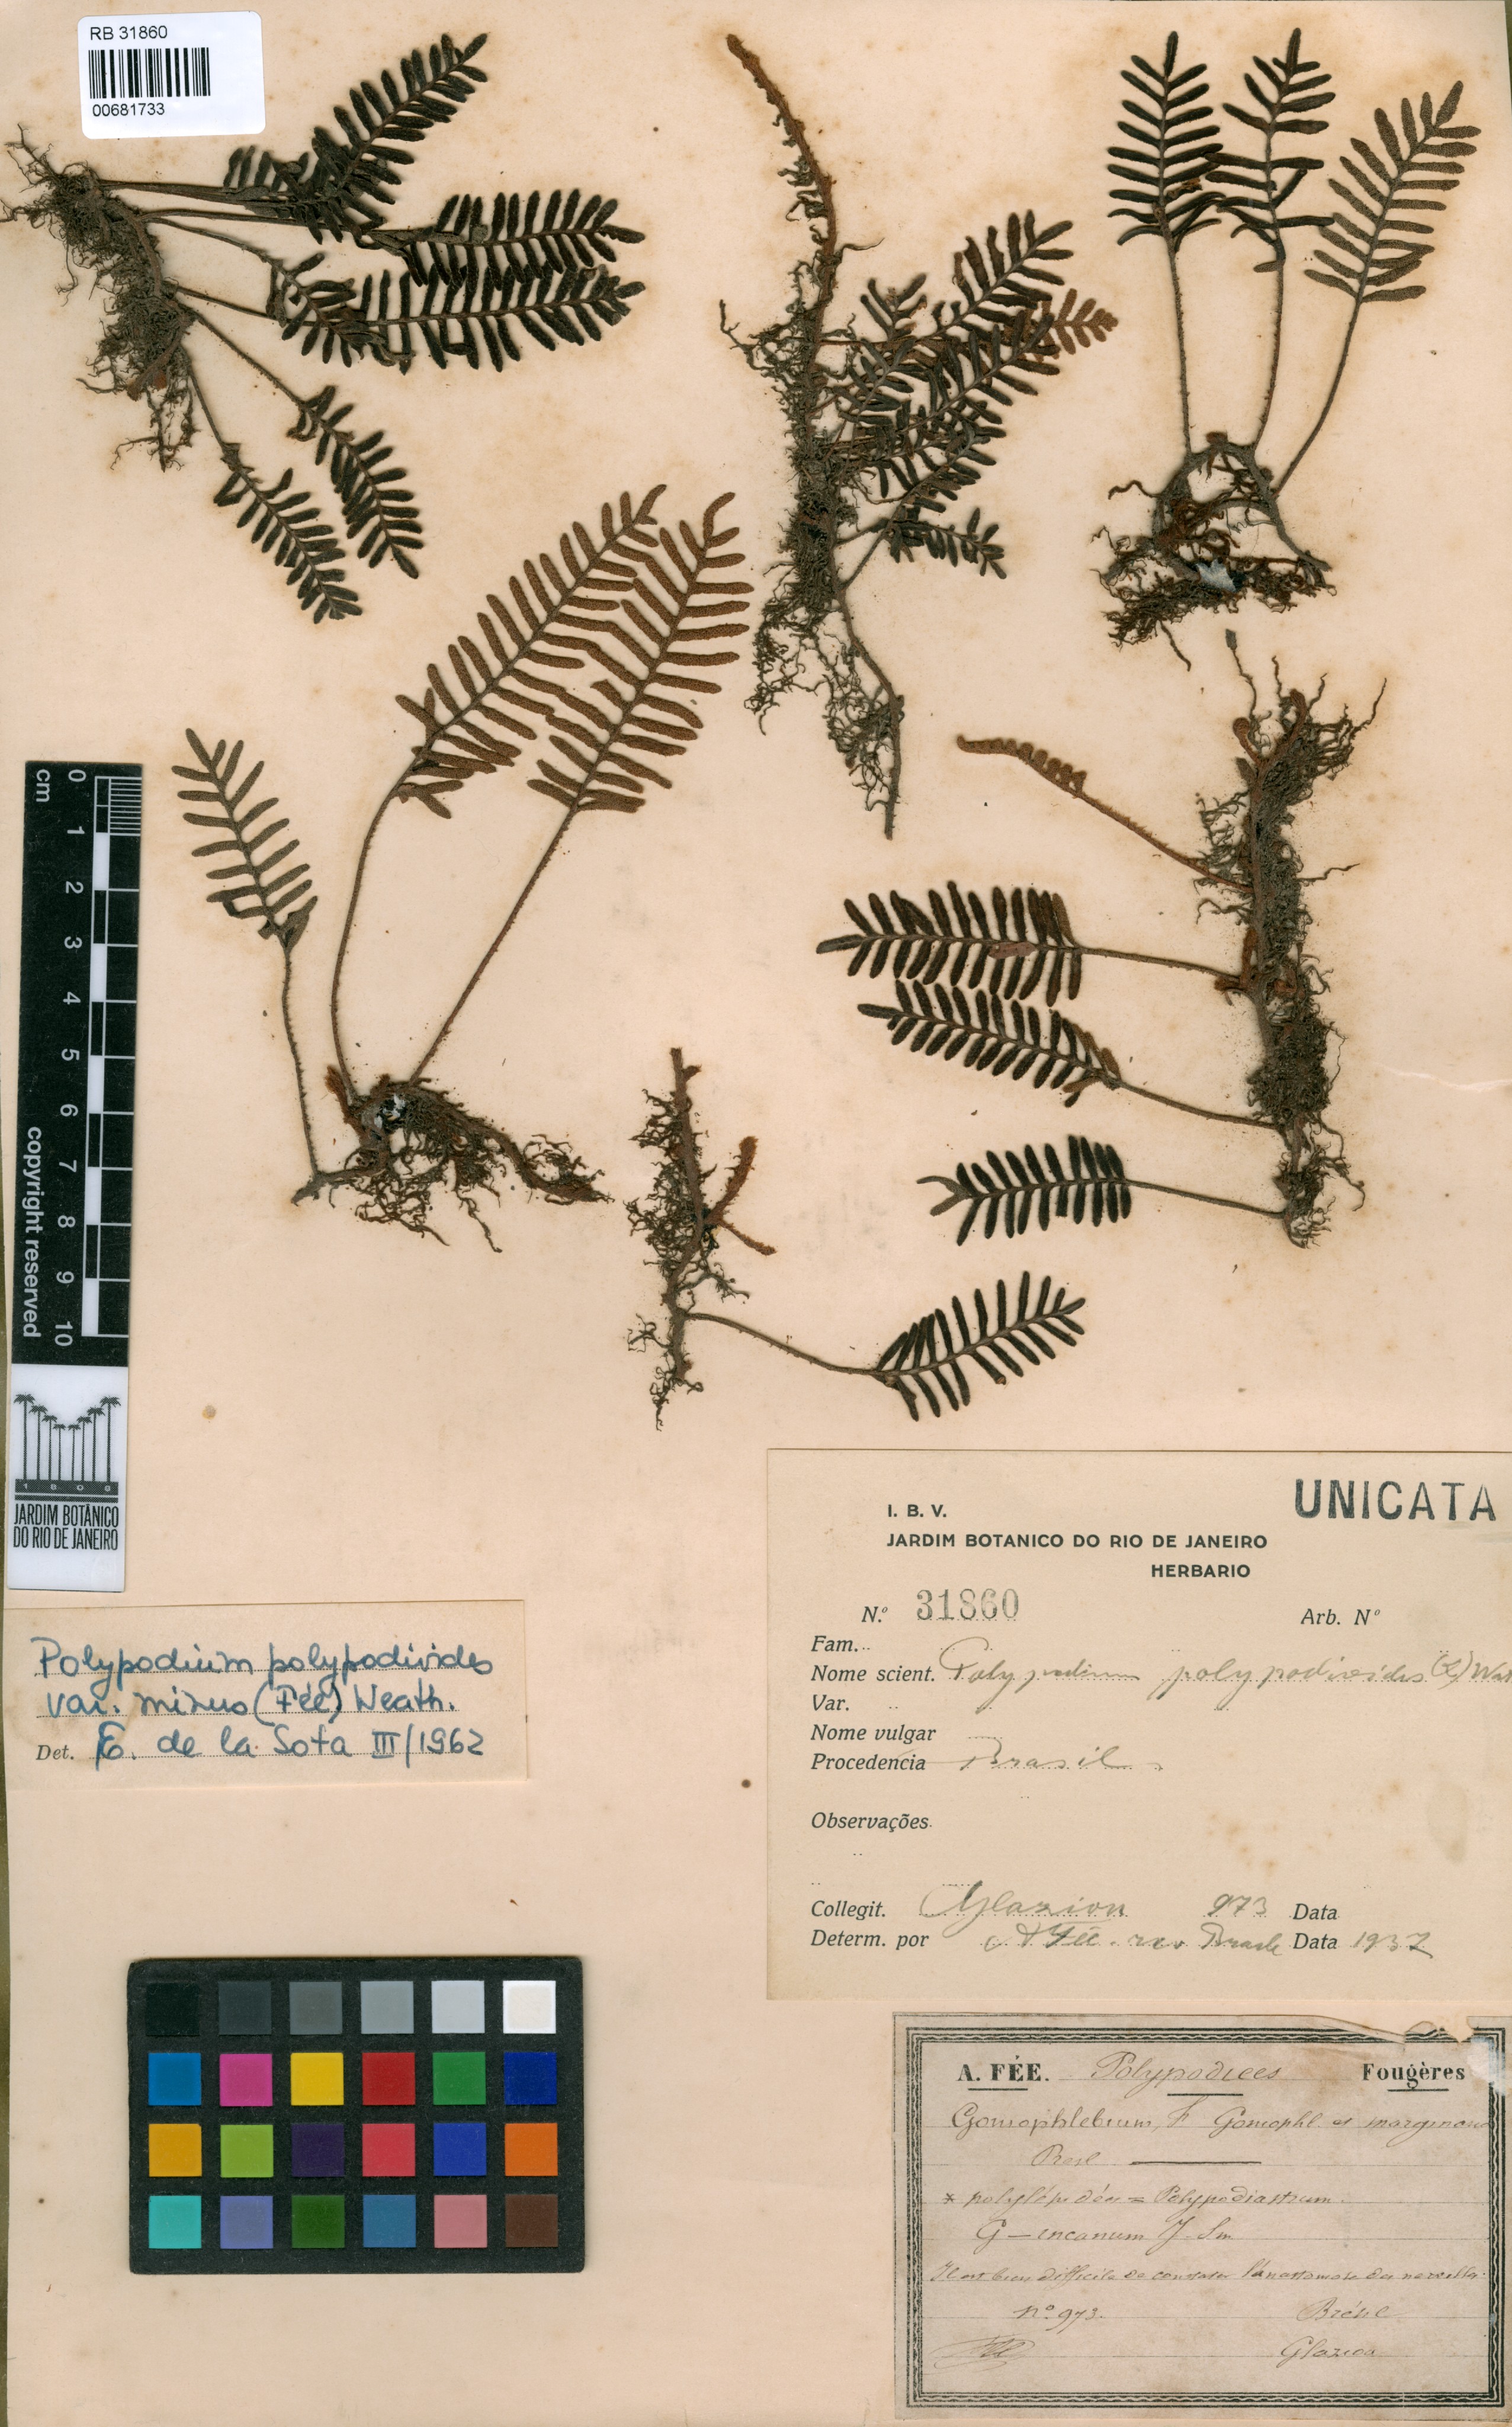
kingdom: Plantae
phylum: Tracheophyta
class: Polypodiopsida
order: Polypodiales
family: Polypodiaceae
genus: Pleopeltis
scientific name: Pleopeltis minima
